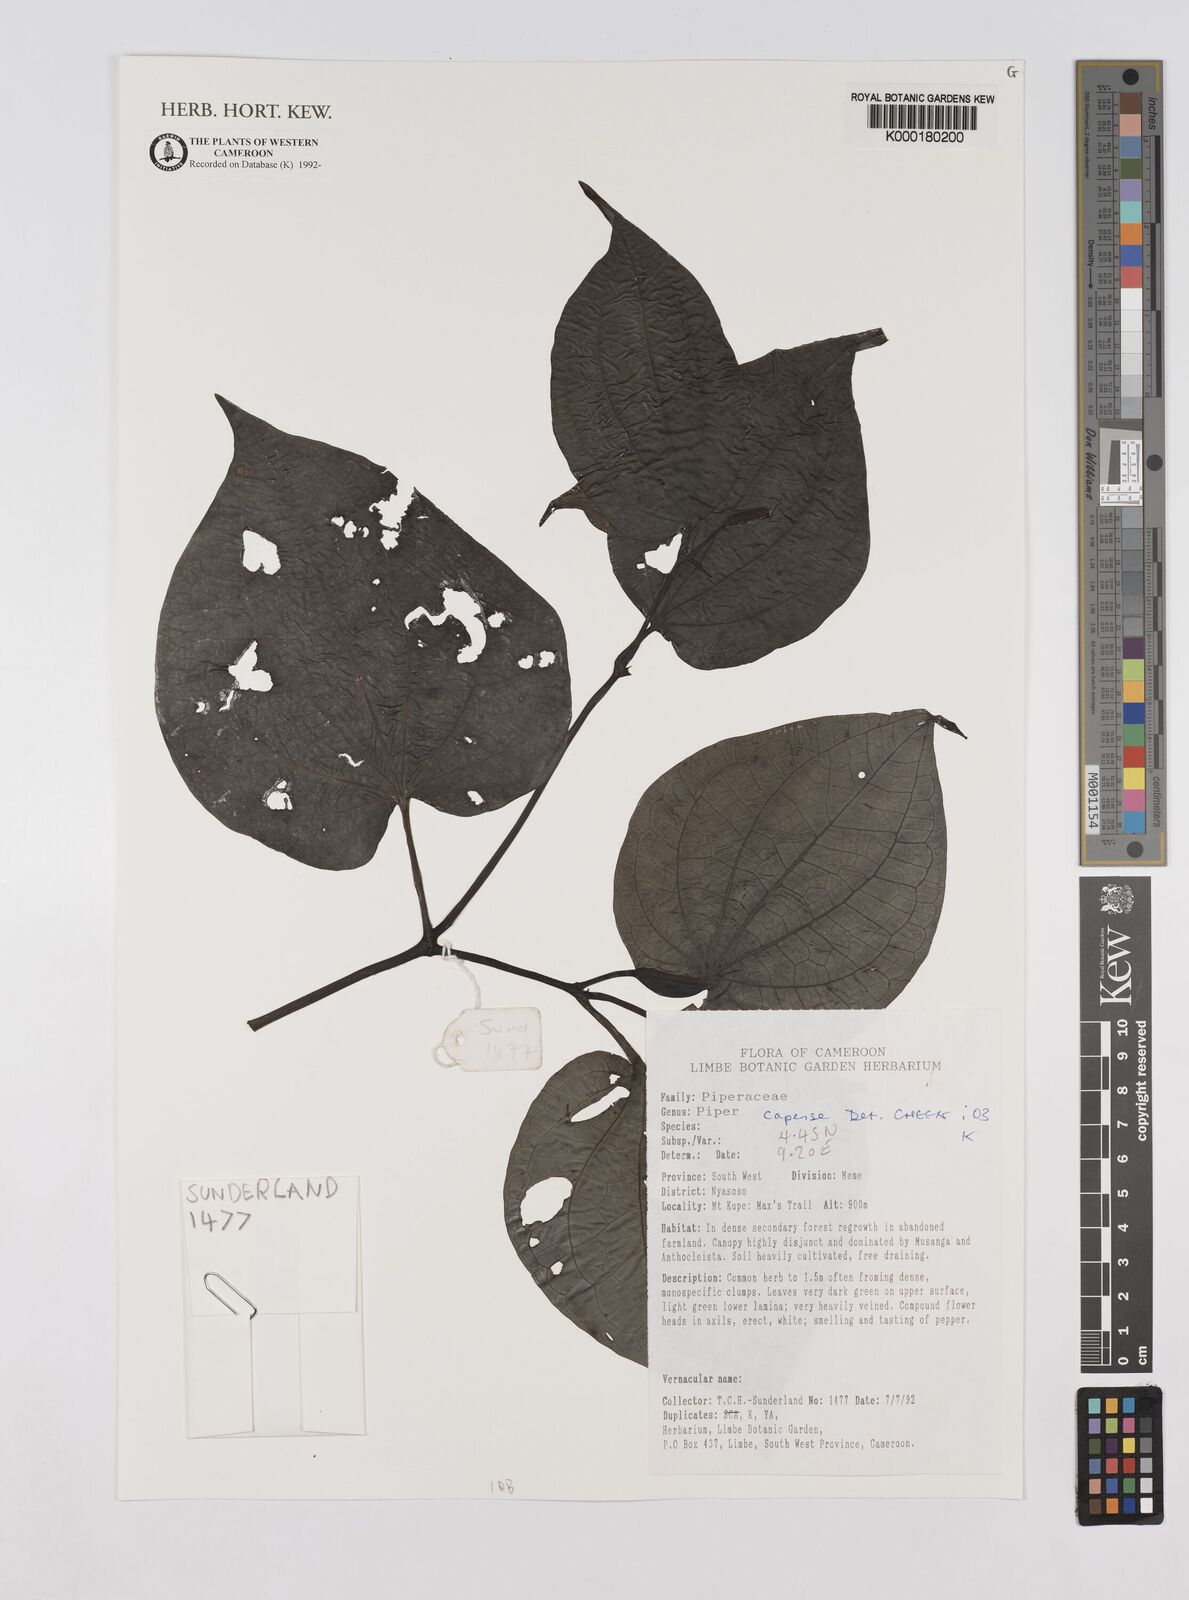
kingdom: Plantae
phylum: Tracheophyta
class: Magnoliopsida
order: Piperales
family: Piperaceae
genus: Piper
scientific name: Piper capense
